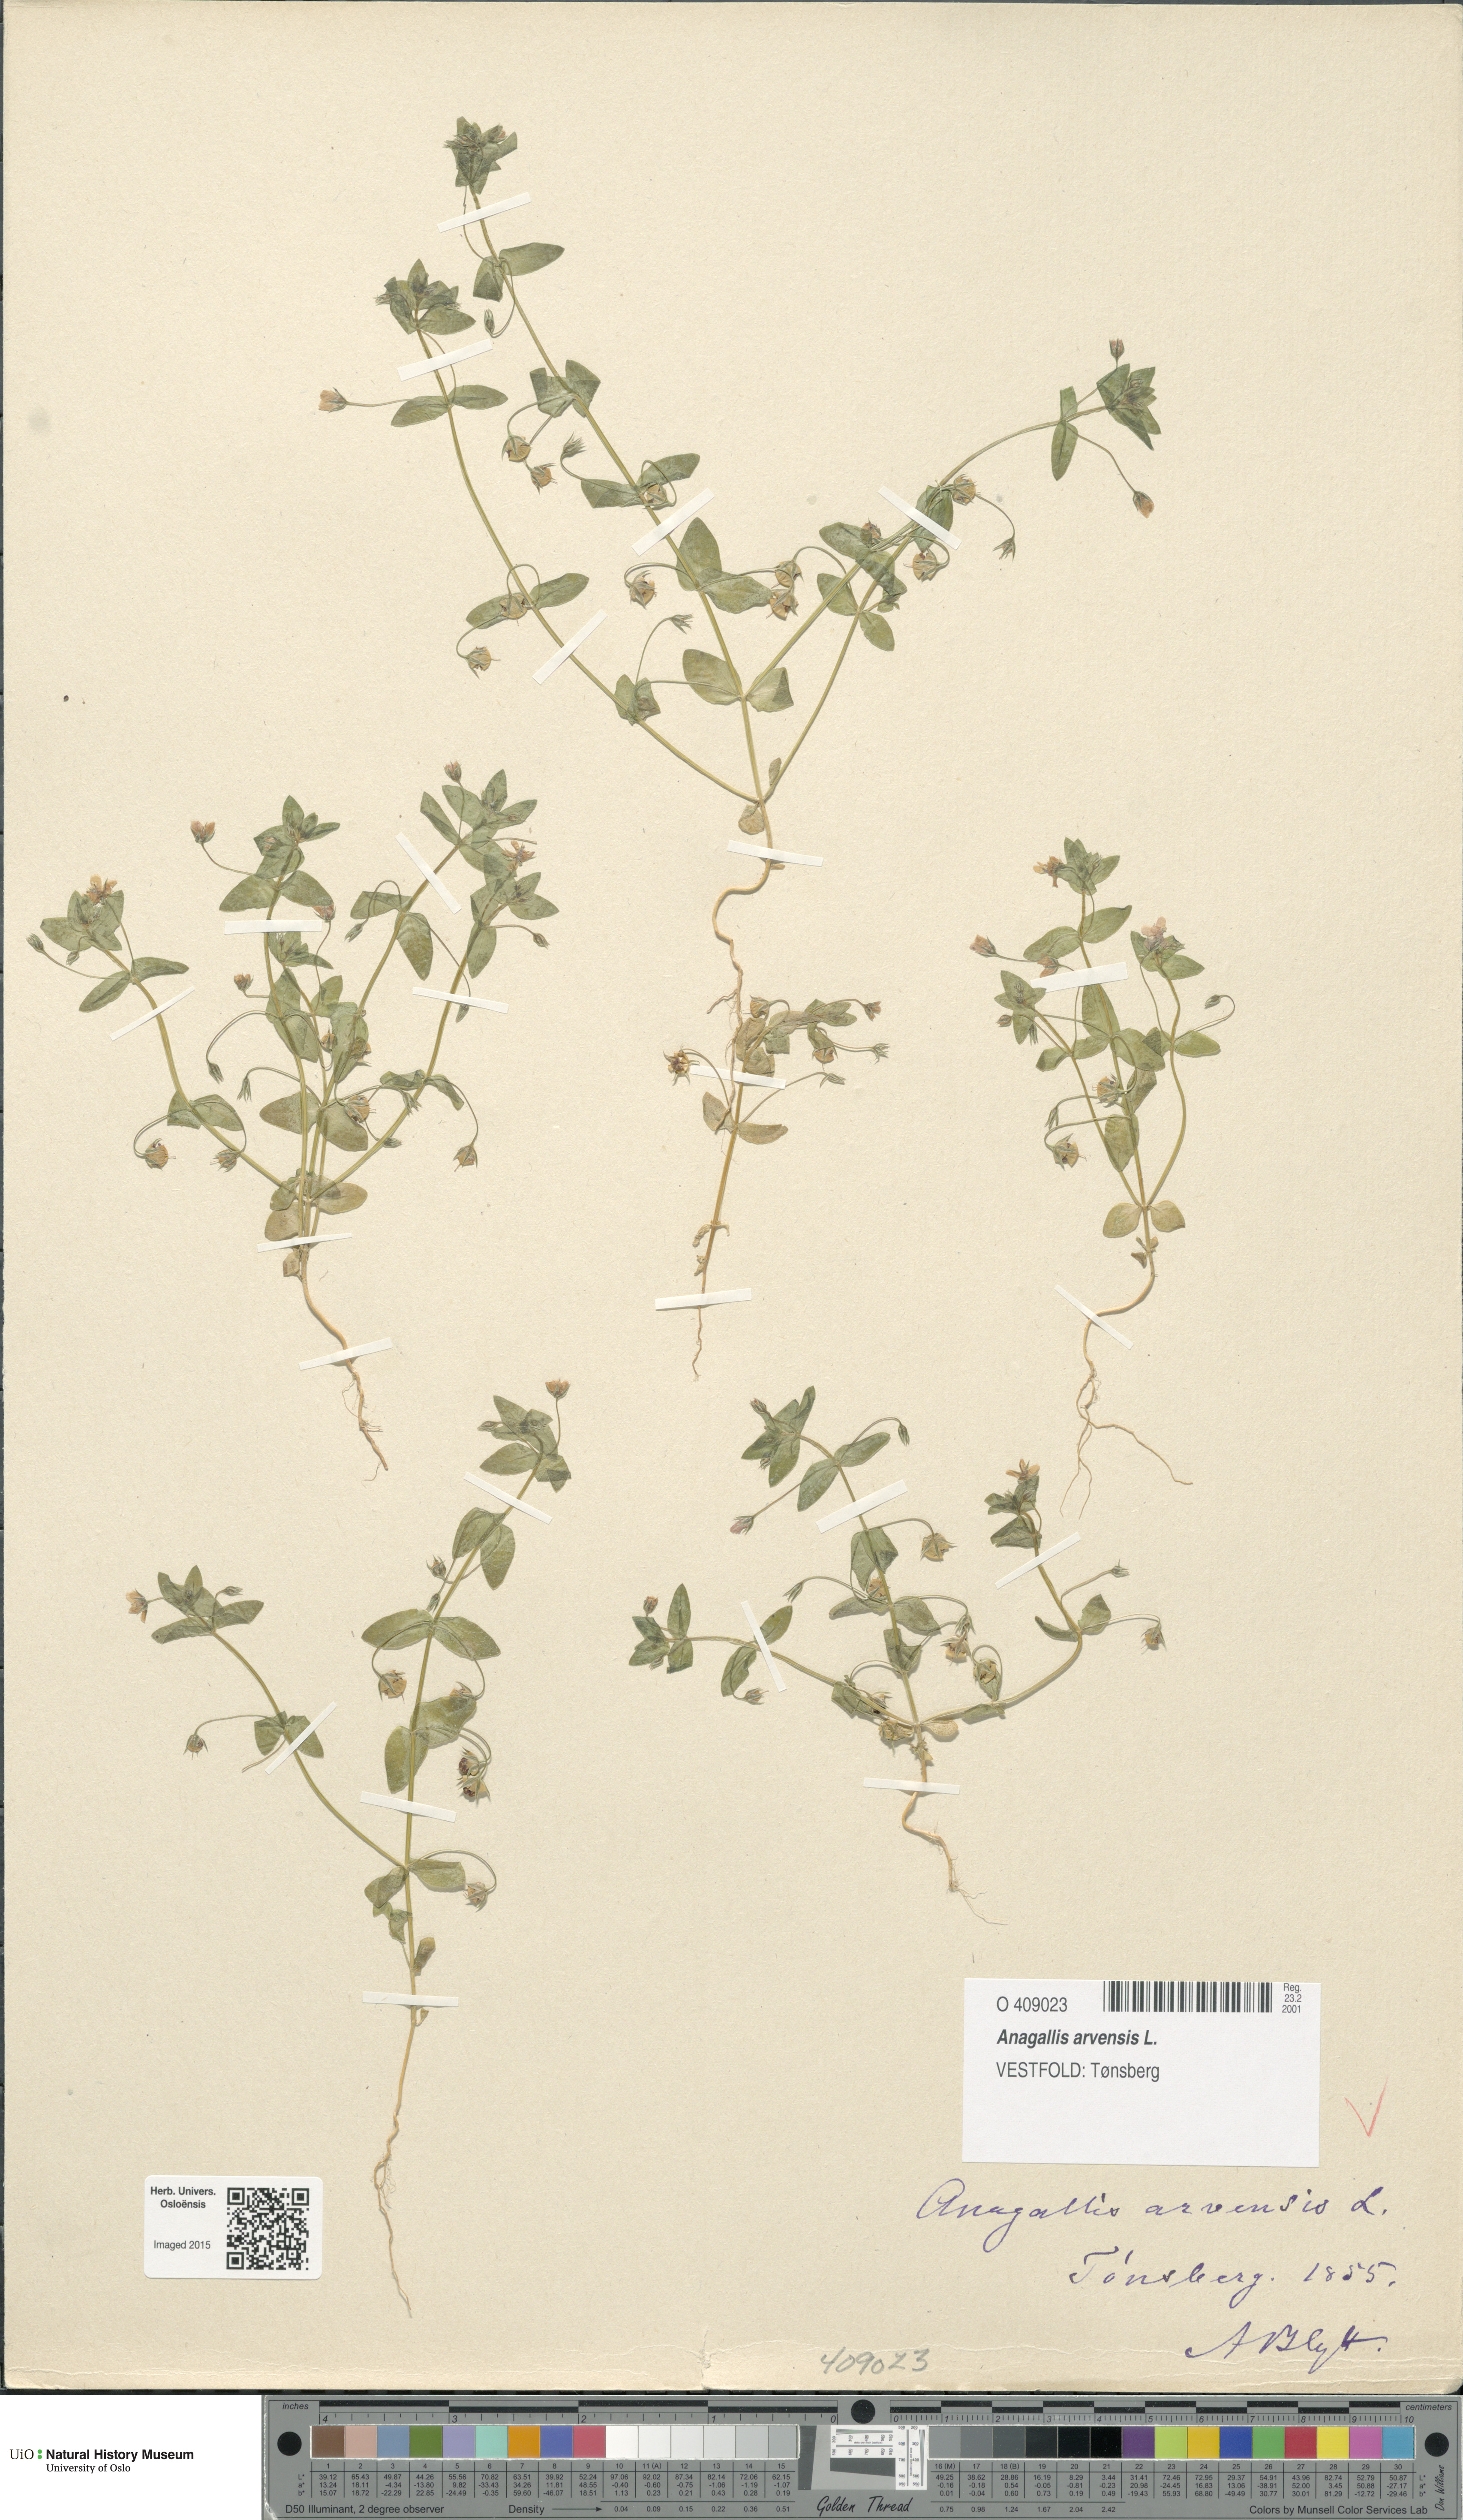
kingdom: Plantae
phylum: Tracheophyta
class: Magnoliopsida
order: Ericales
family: Primulaceae
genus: Lysimachia
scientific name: Lysimachia arvensis
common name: Scarlet pimpernel
